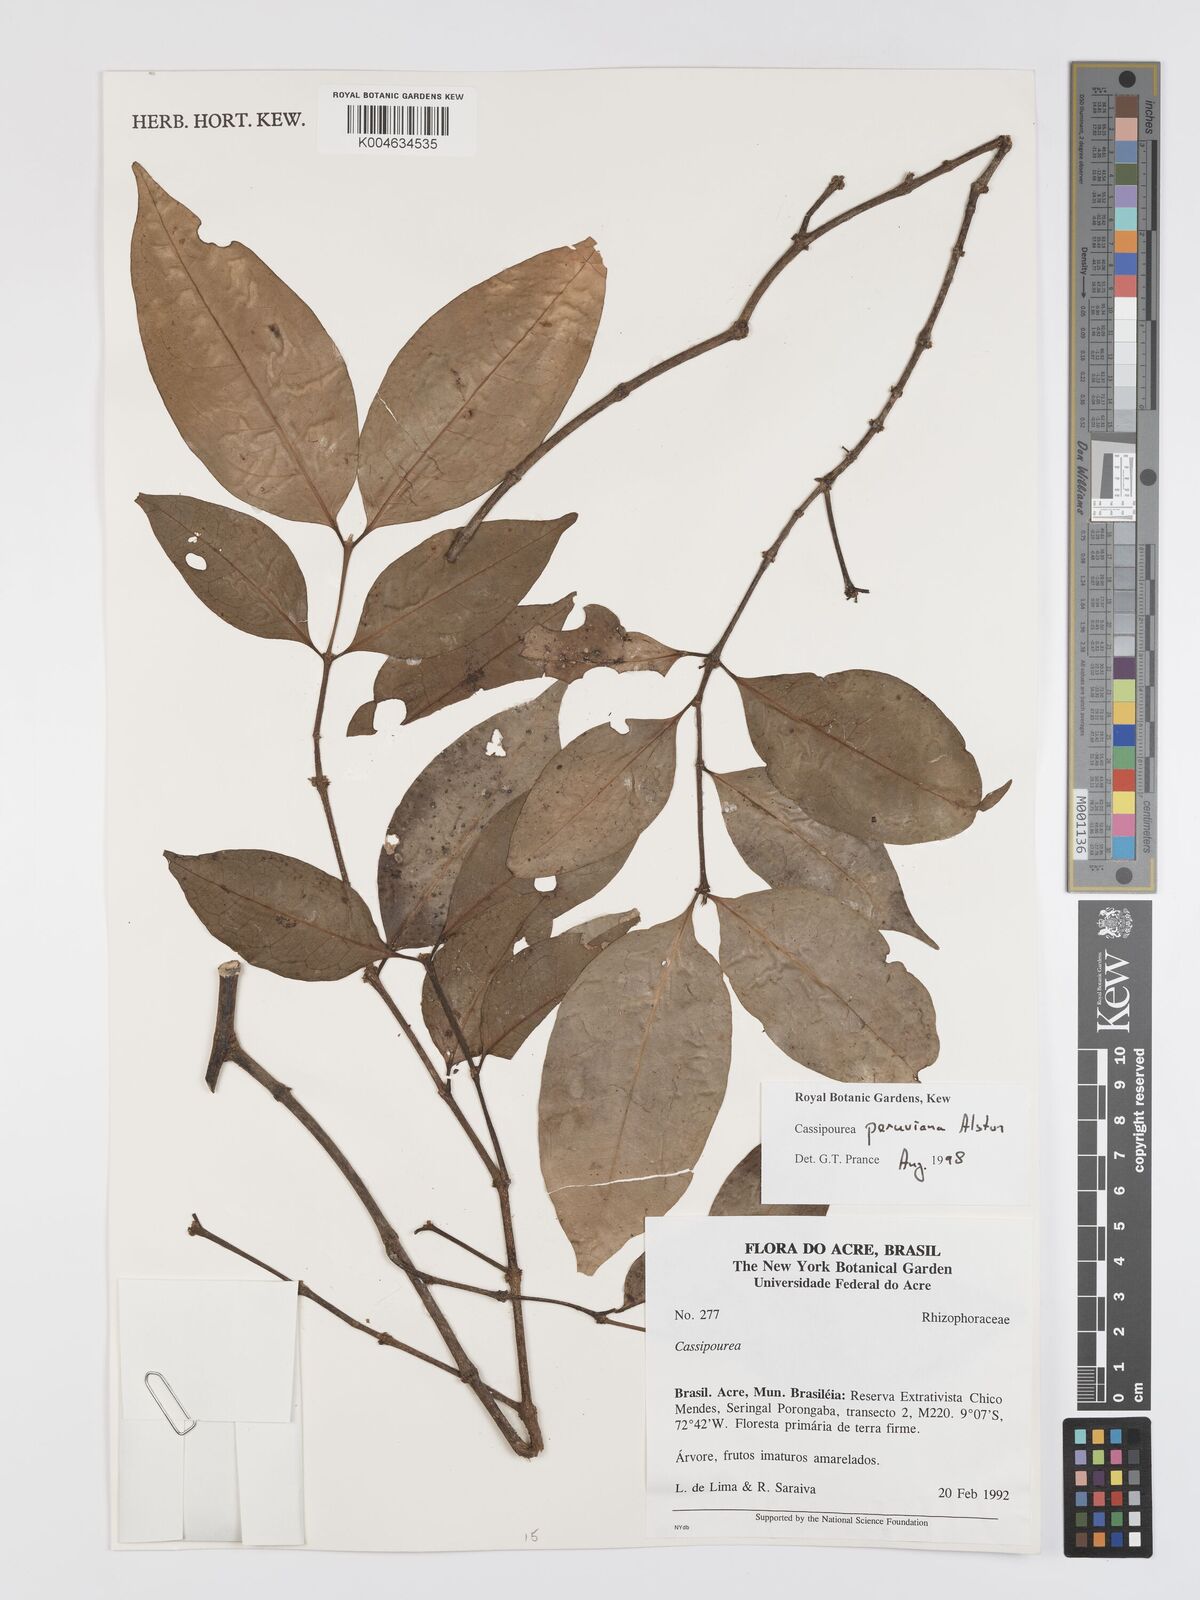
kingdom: Plantae
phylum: Tracheophyta
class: Magnoliopsida
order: Malpighiales
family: Rhizophoraceae
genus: Cassipourea
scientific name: Cassipourea peruviana
